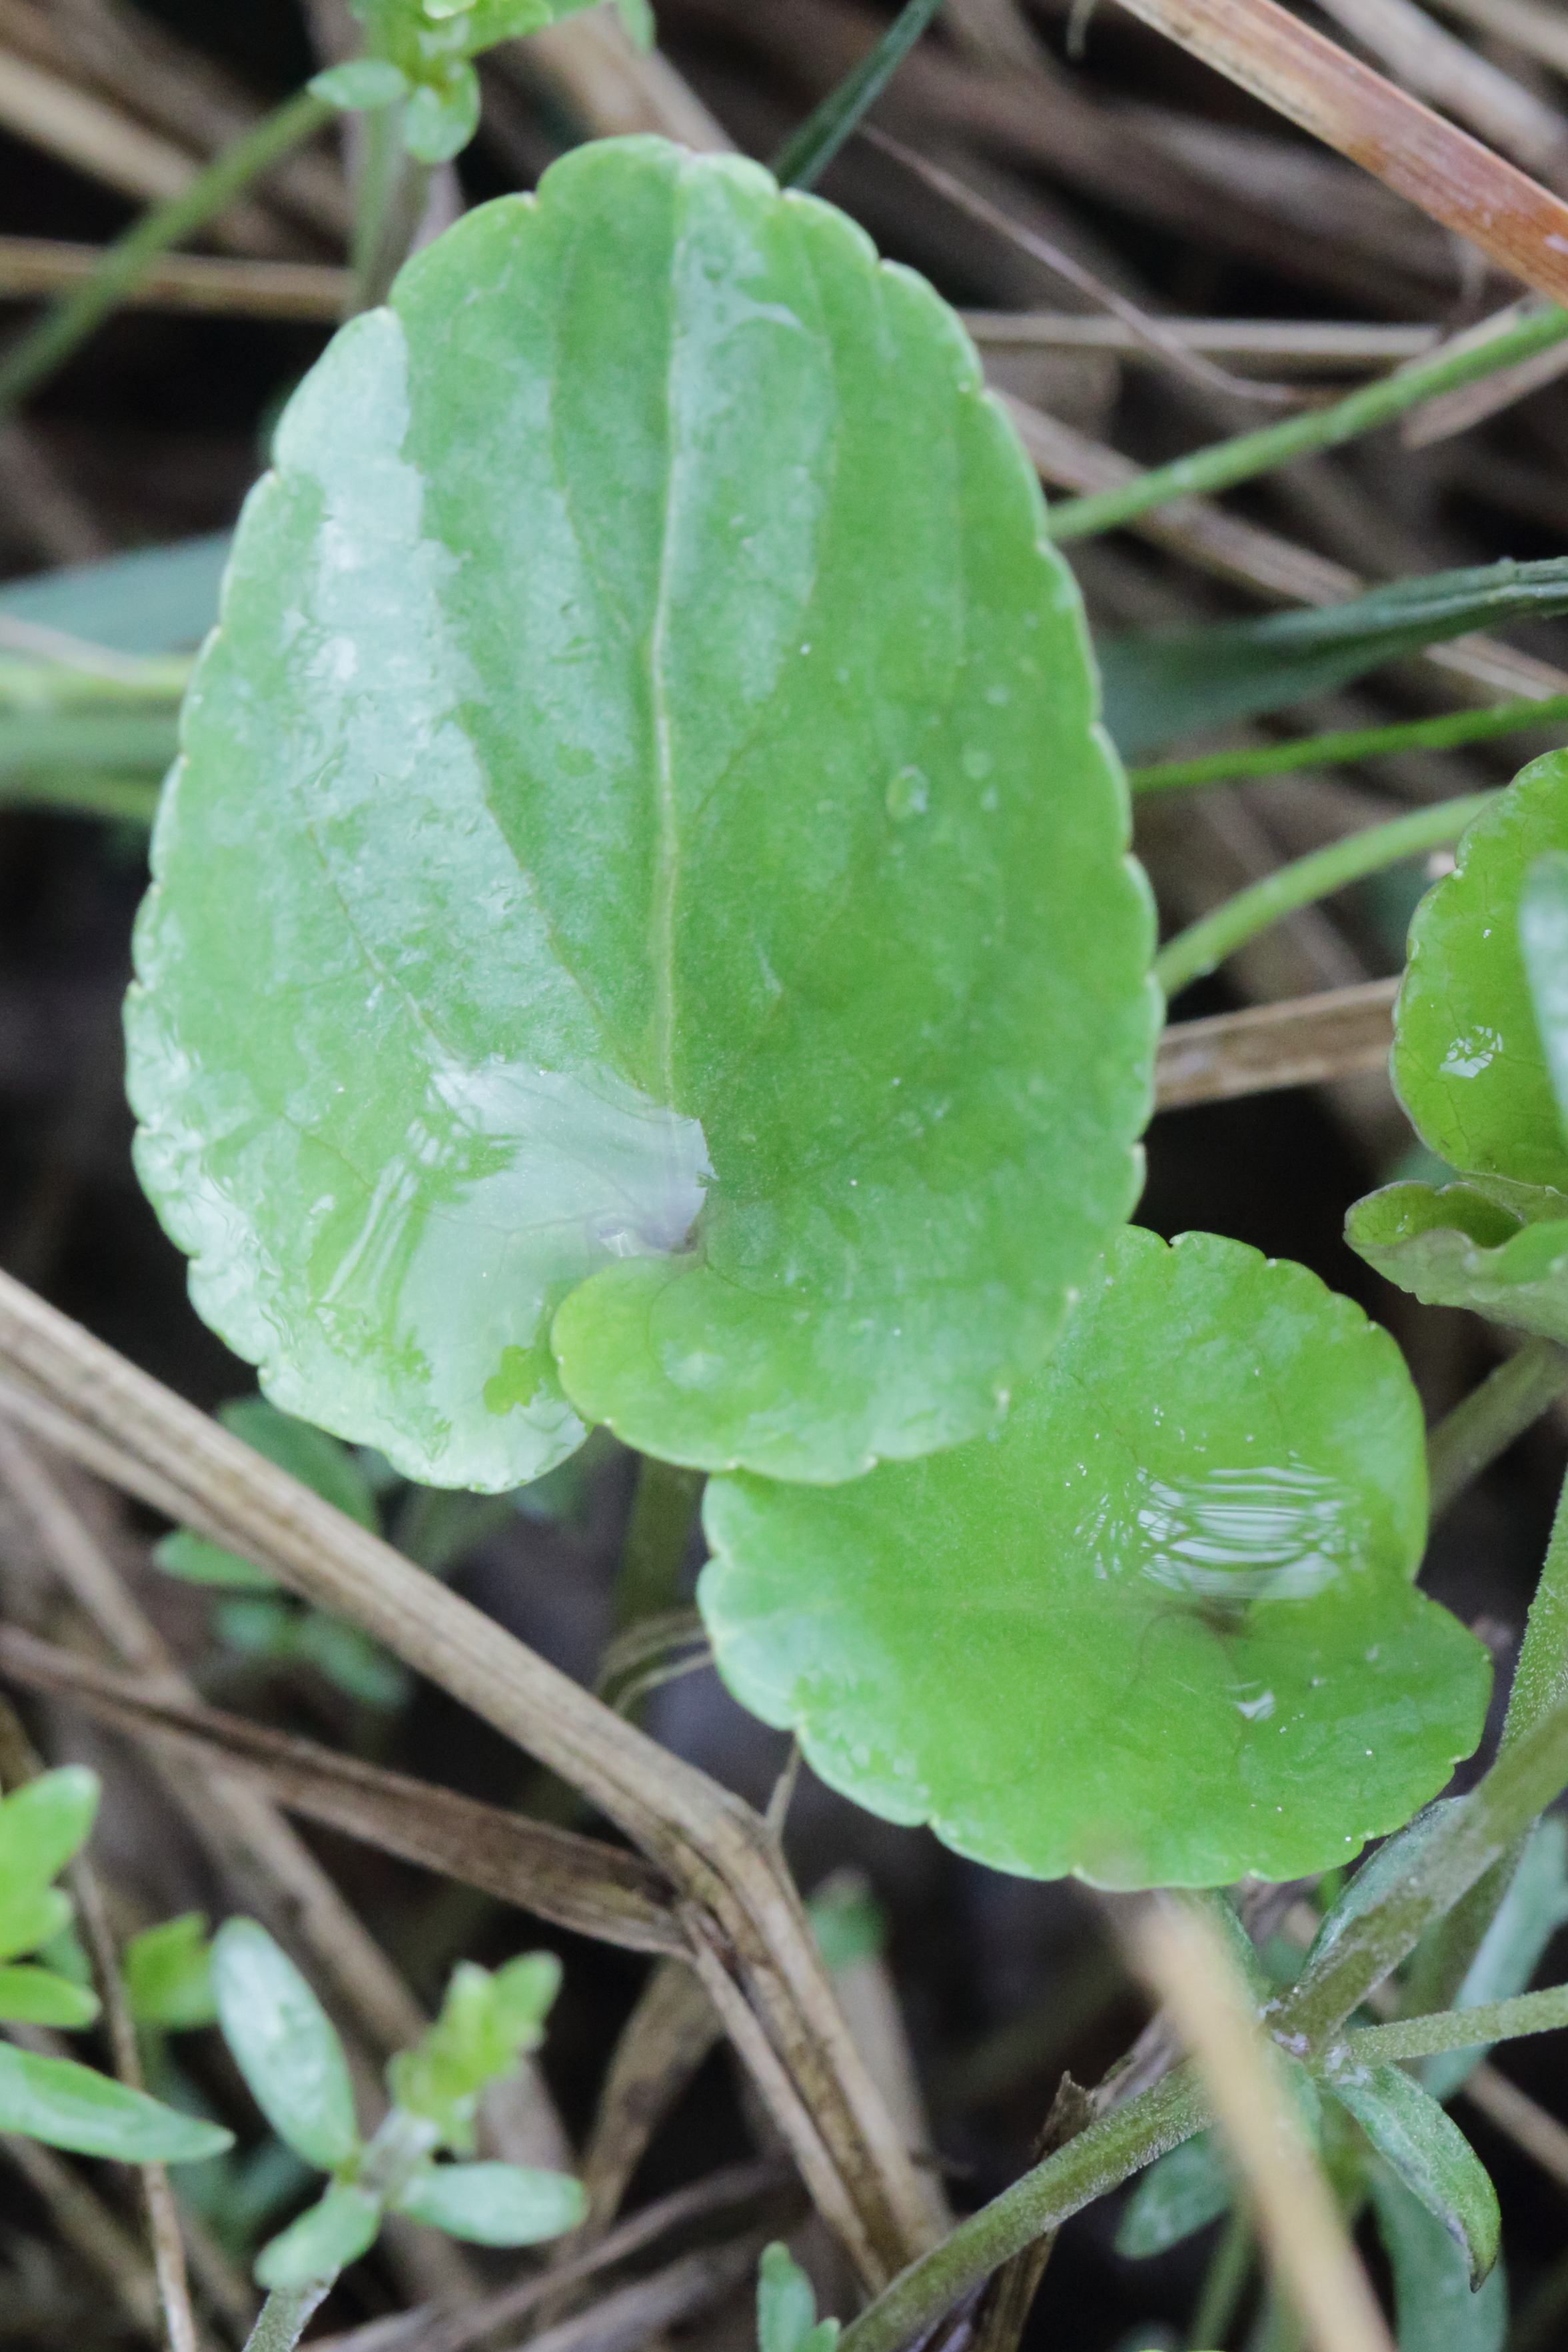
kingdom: Plantae
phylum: Tracheophyta
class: Magnoliopsida
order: Malpighiales
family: Violaceae
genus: Viola
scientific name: Viola uliginosa
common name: Sump-viol
